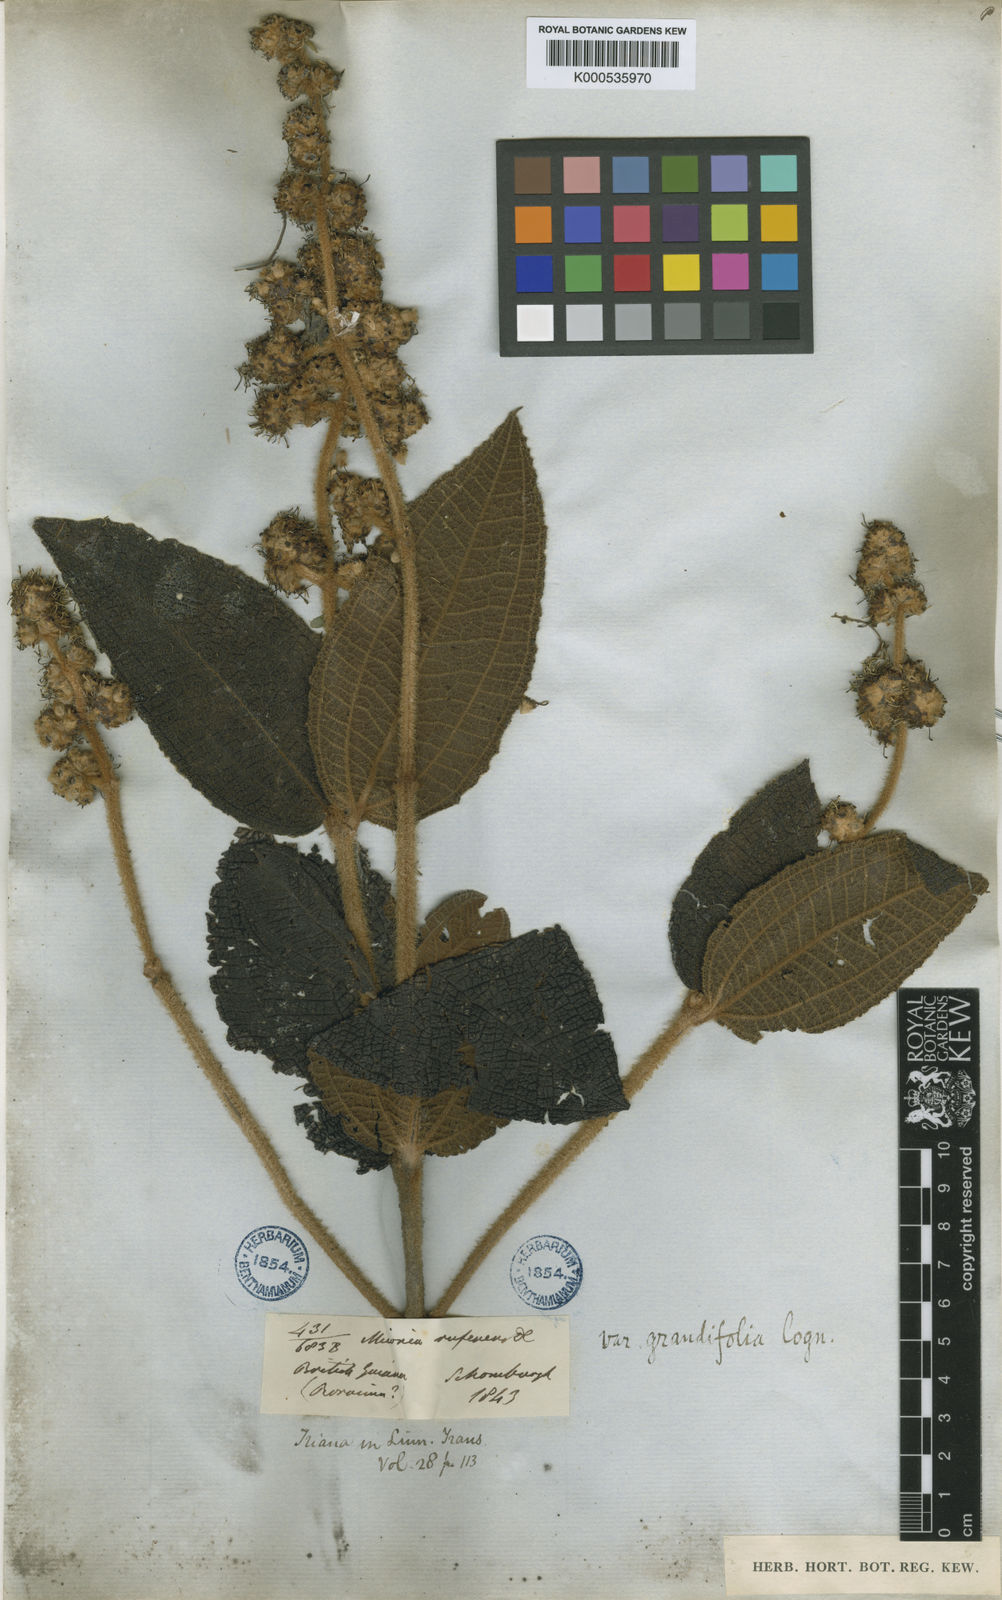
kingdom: Plantae
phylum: Tracheophyta
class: Magnoliopsida
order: Myrtales
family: Melastomataceae
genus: Miconia
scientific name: Miconia rufescens
